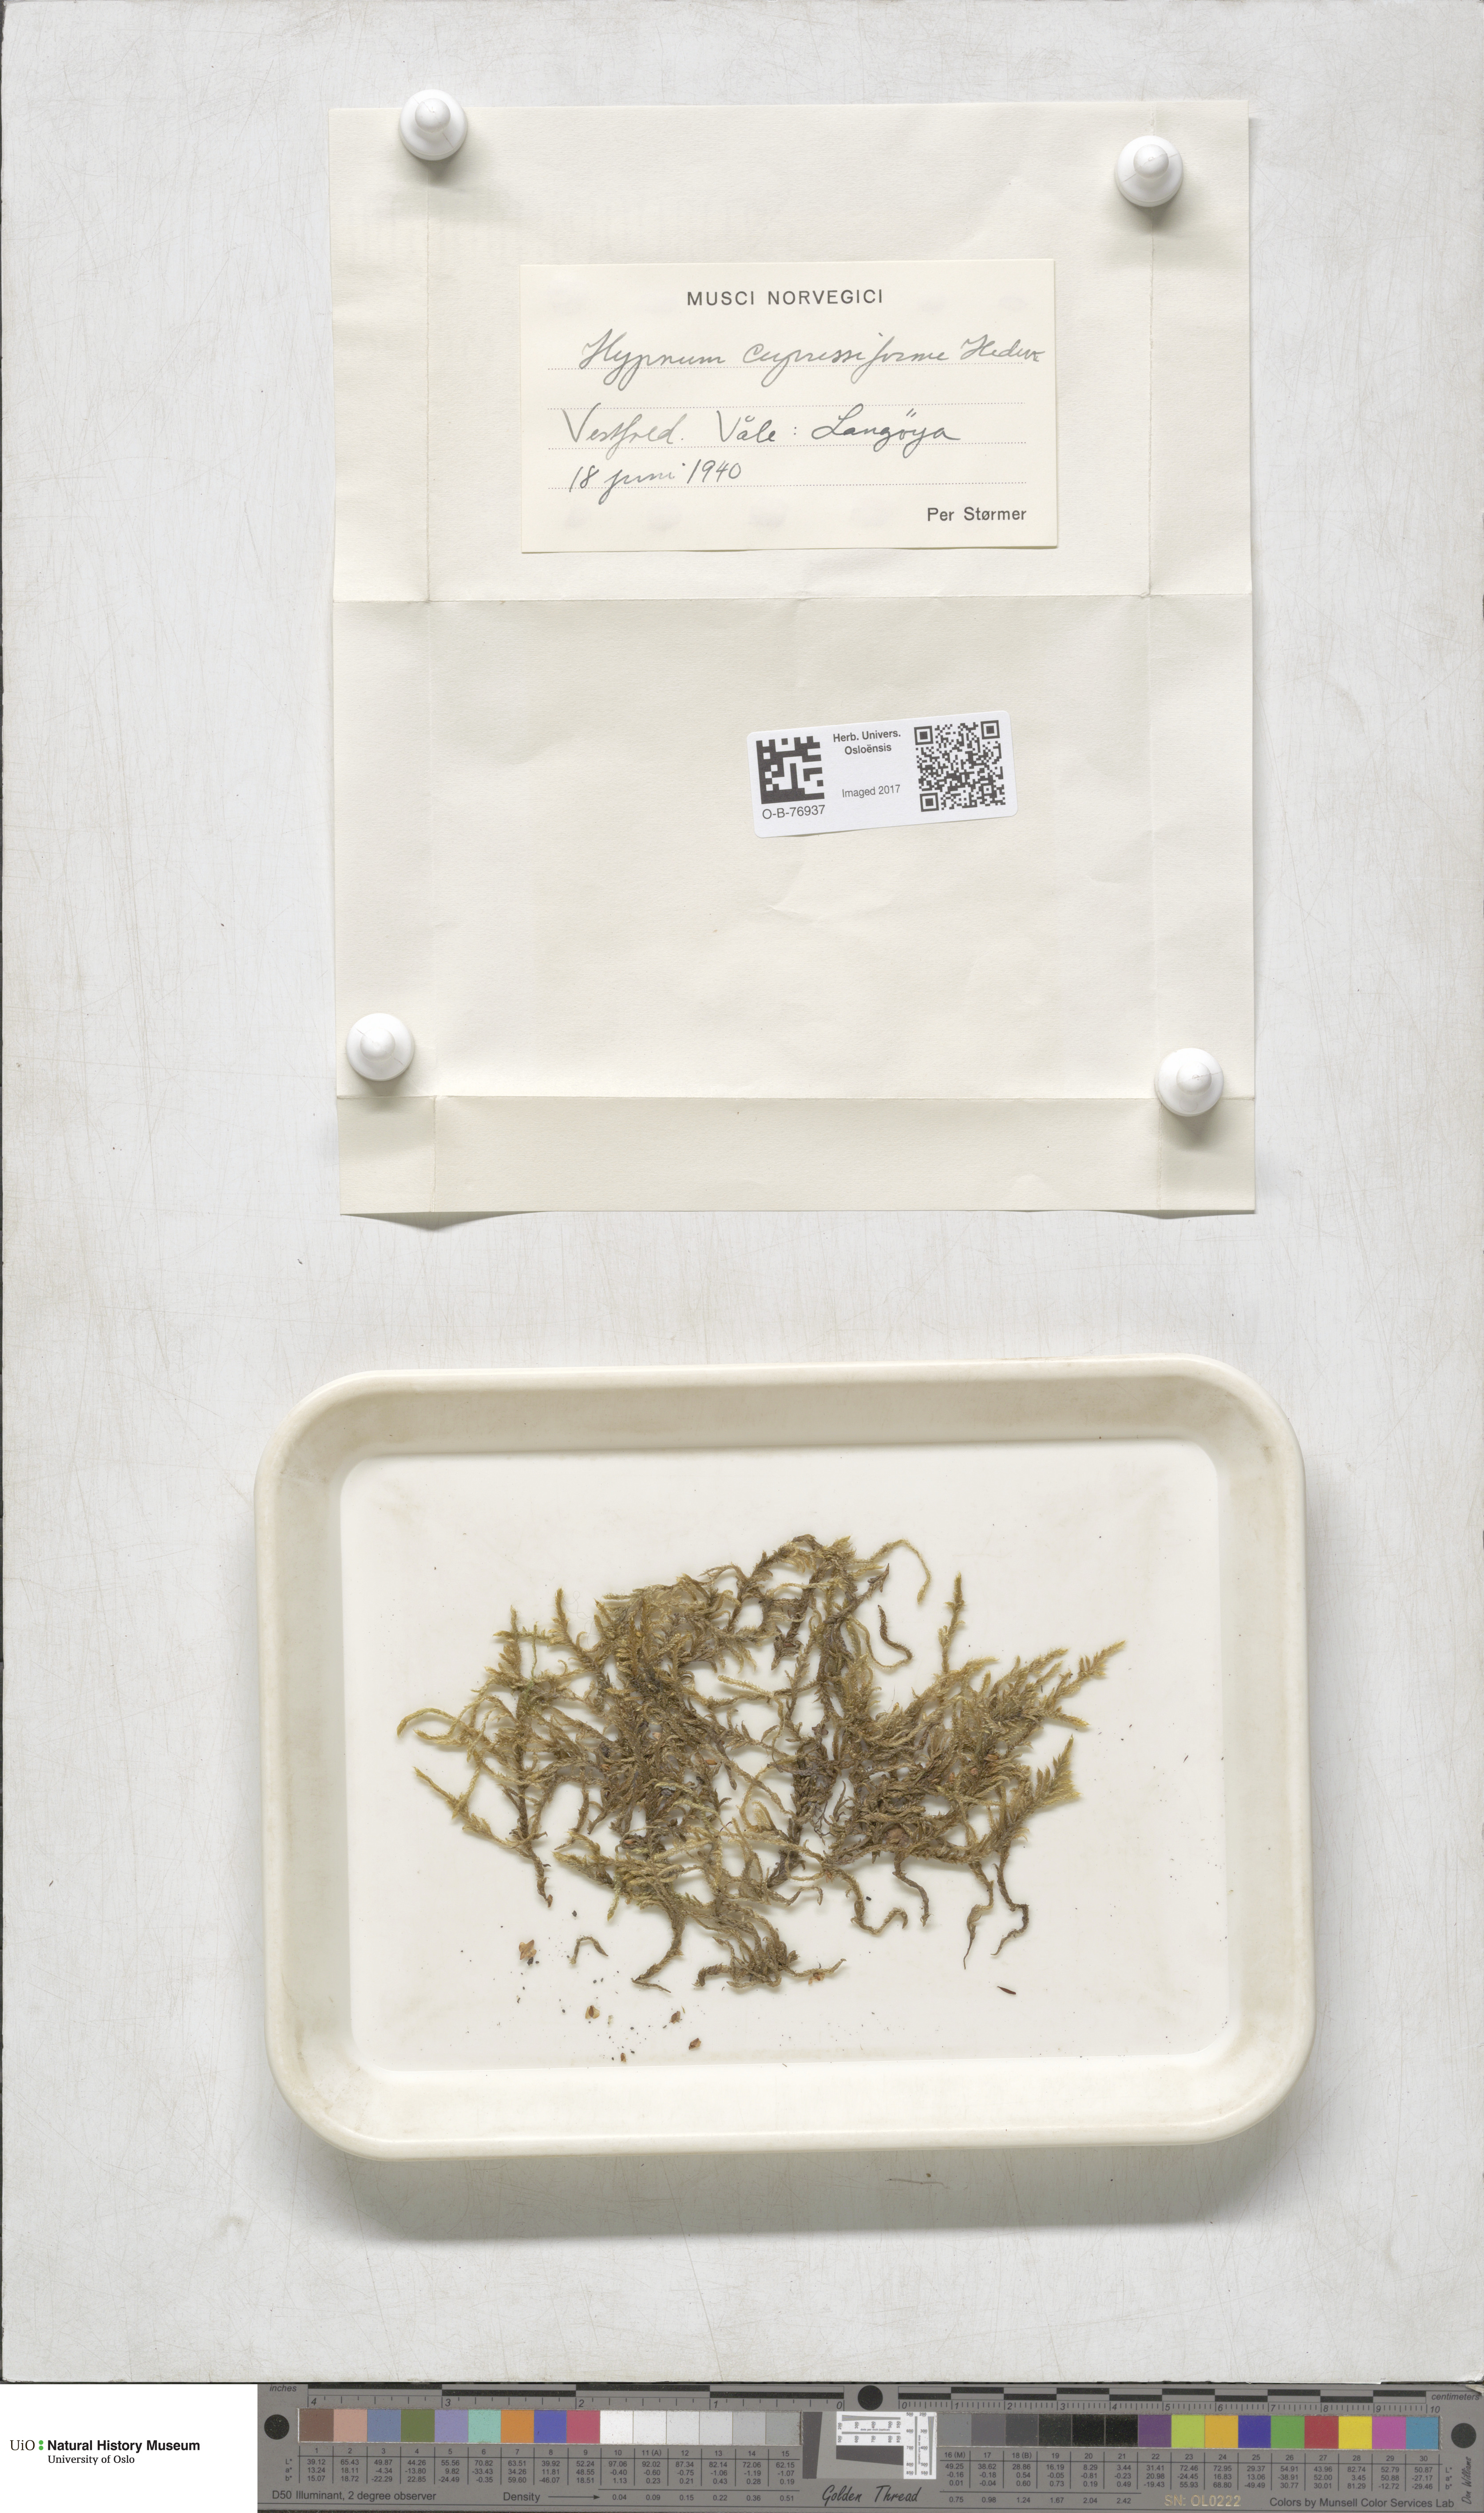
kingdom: Plantae
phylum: Bryophyta
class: Bryopsida
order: Hypnales
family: Hypnaceae
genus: Hypnum
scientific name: Hypnum cupressiforme
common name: Cypress-leaved plait-moss
